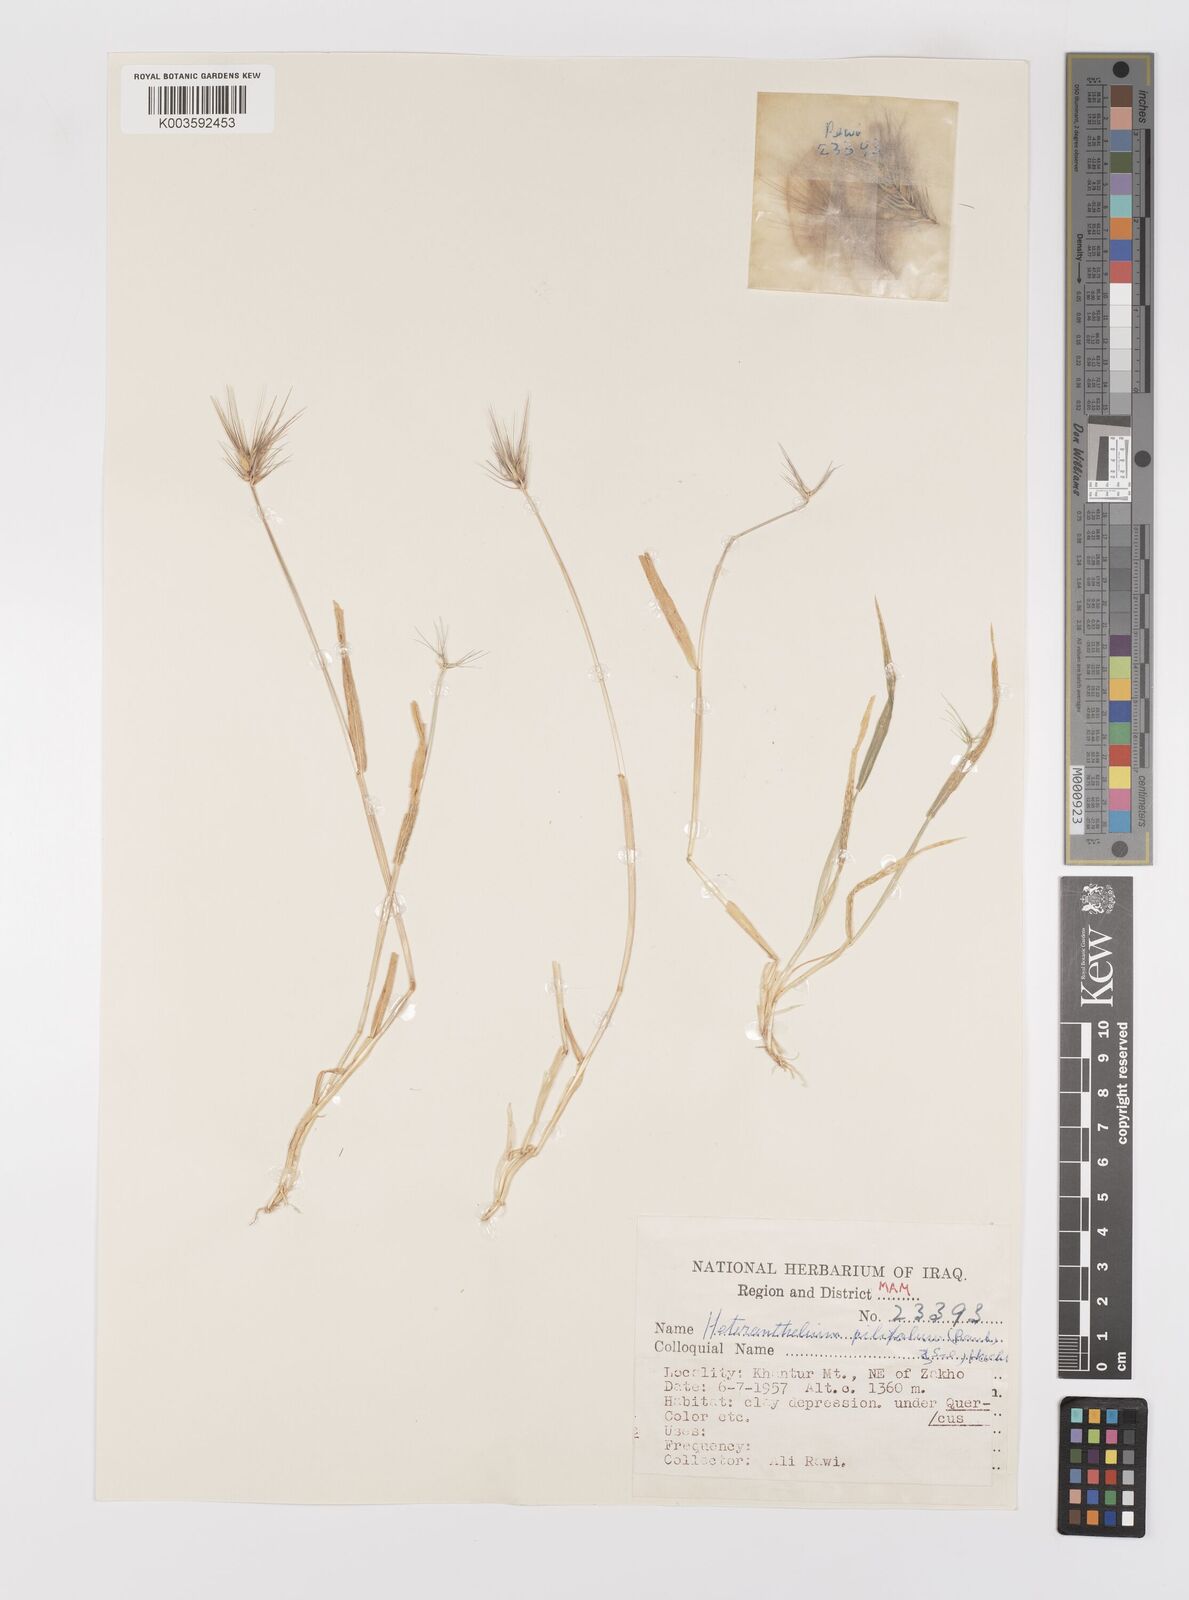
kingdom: Plantae
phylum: Tracheophyta
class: Liliopsida
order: Poales
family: Poaceae
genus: Heteranthelium
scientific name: Heteranthelium piliferum
